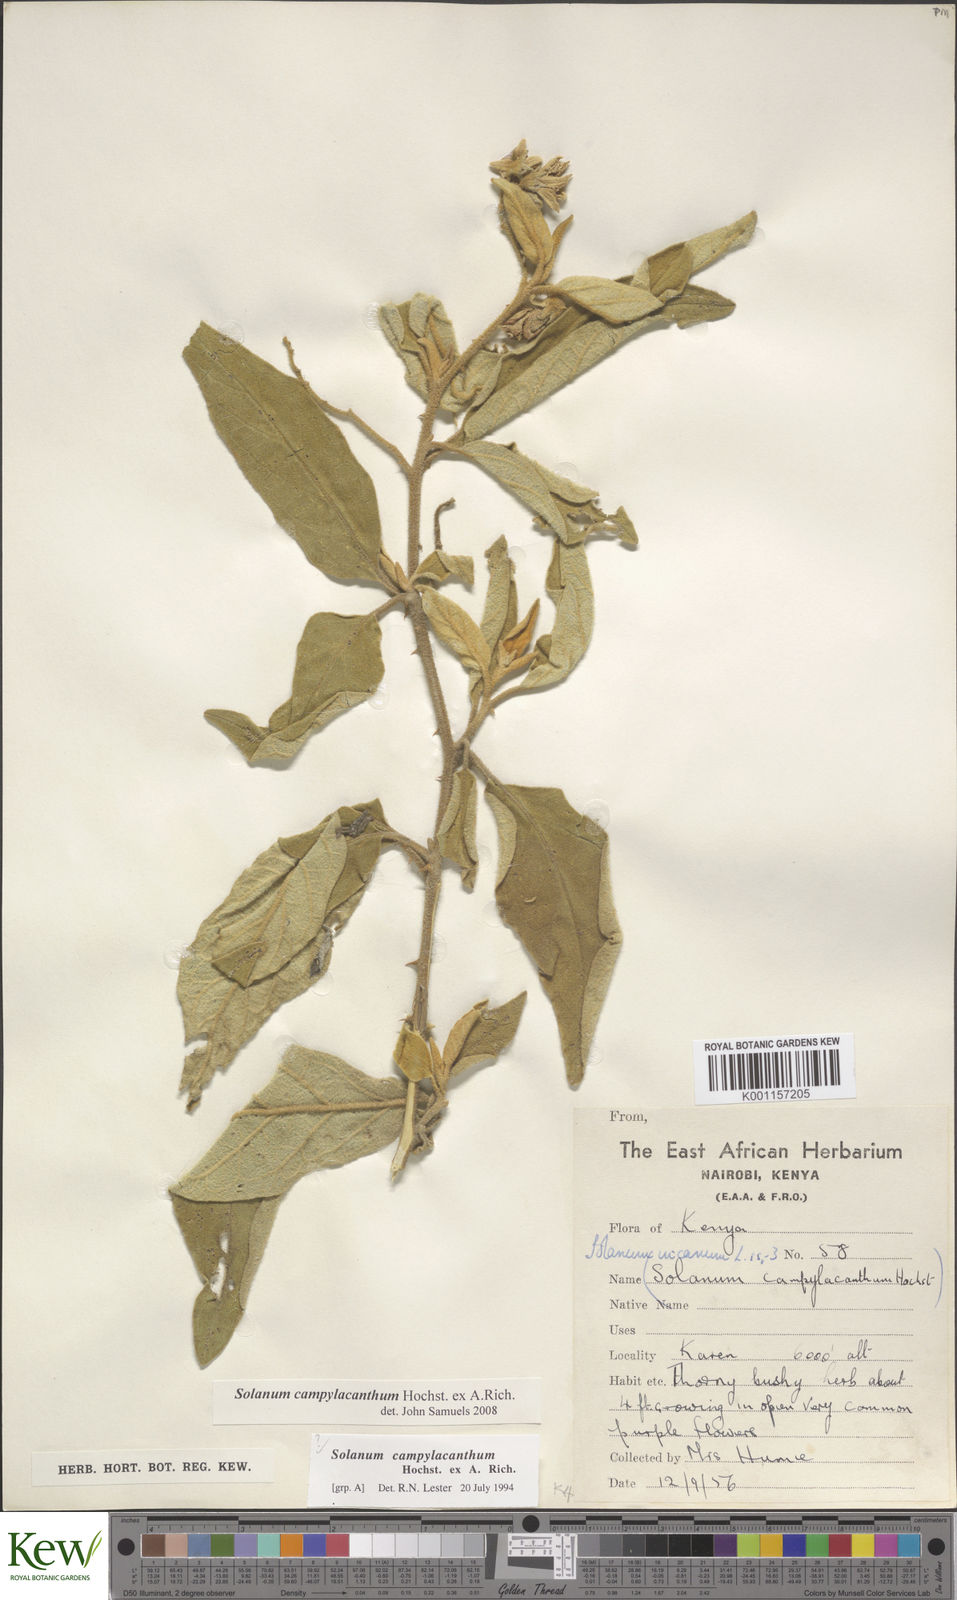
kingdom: Plantae
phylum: Tracheophyta
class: Magnoliopsida
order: Solanales
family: Solanaceae
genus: Solanum
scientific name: Solanum campylacanthum
